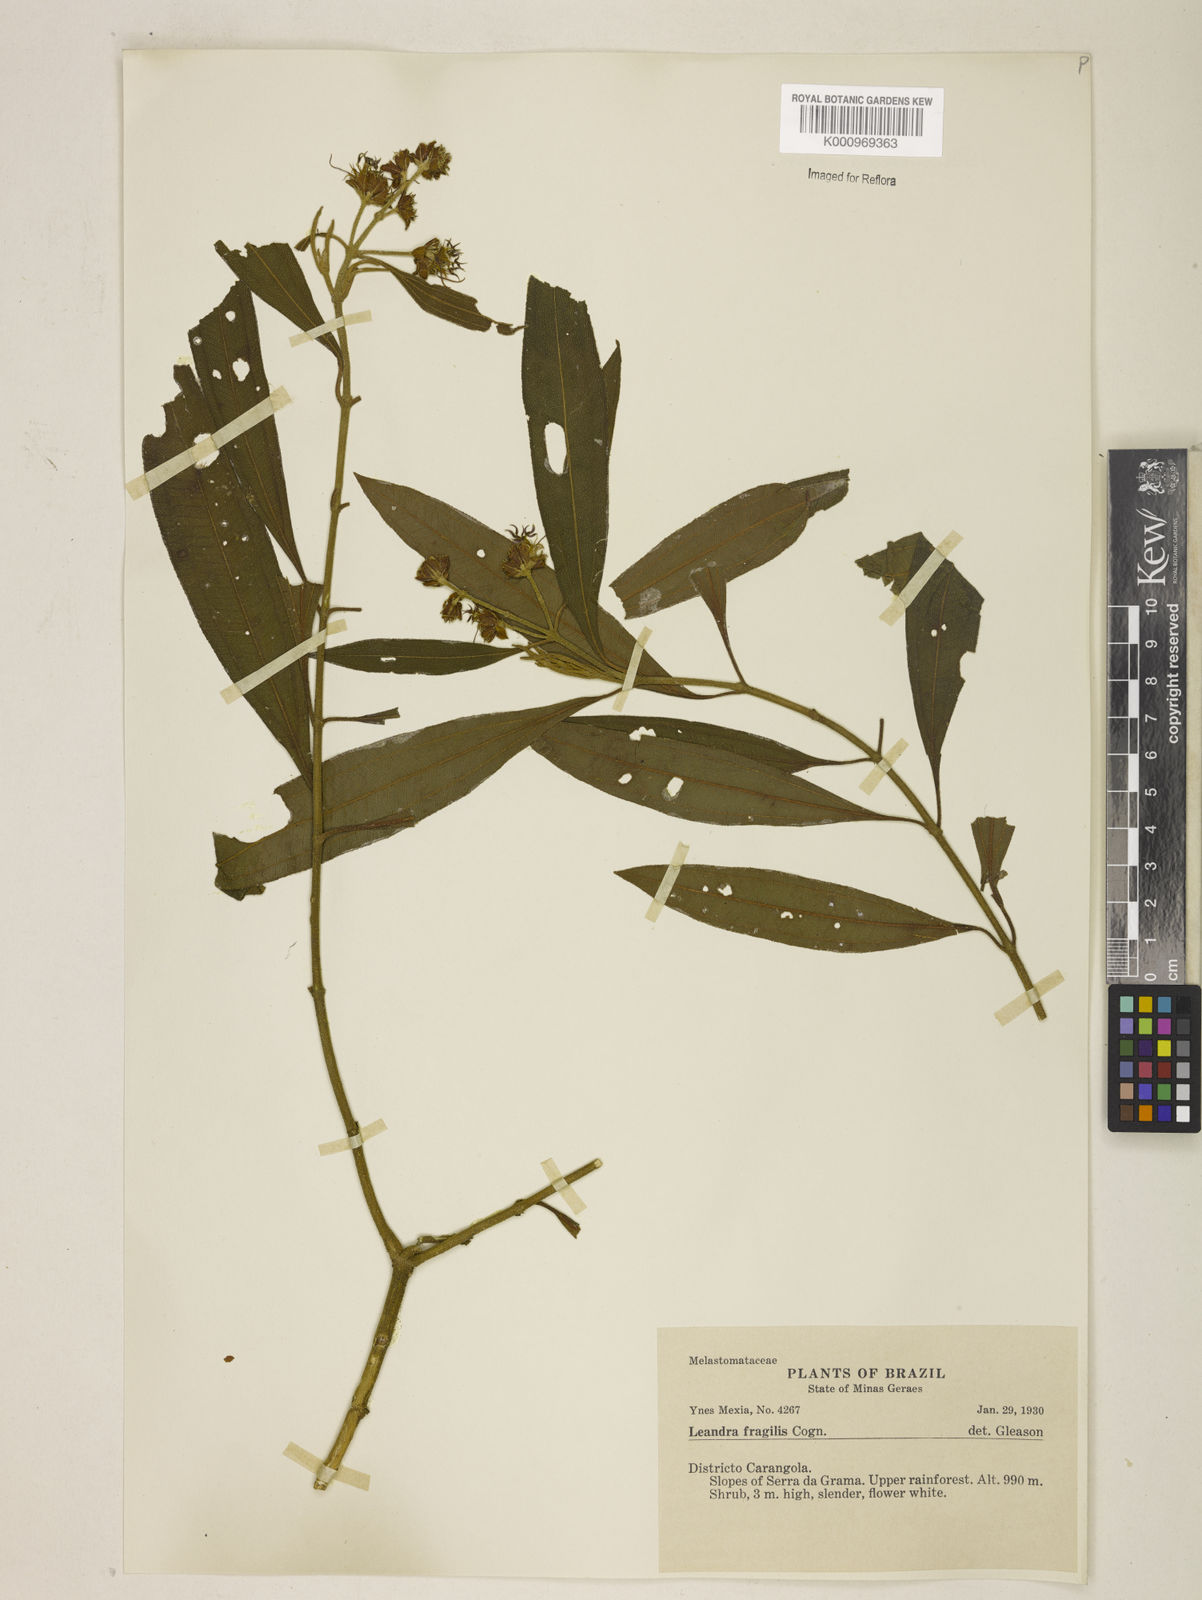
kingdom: Plantae
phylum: Tracheophyta
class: Magnoliopsida
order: Myrtales
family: Melastomataceae
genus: Miconia
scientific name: Miconia melastomoides
